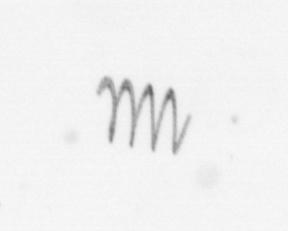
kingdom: Chromista
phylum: Ochrophyta
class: Bacillariophyceae
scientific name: Bacillariophyceae
